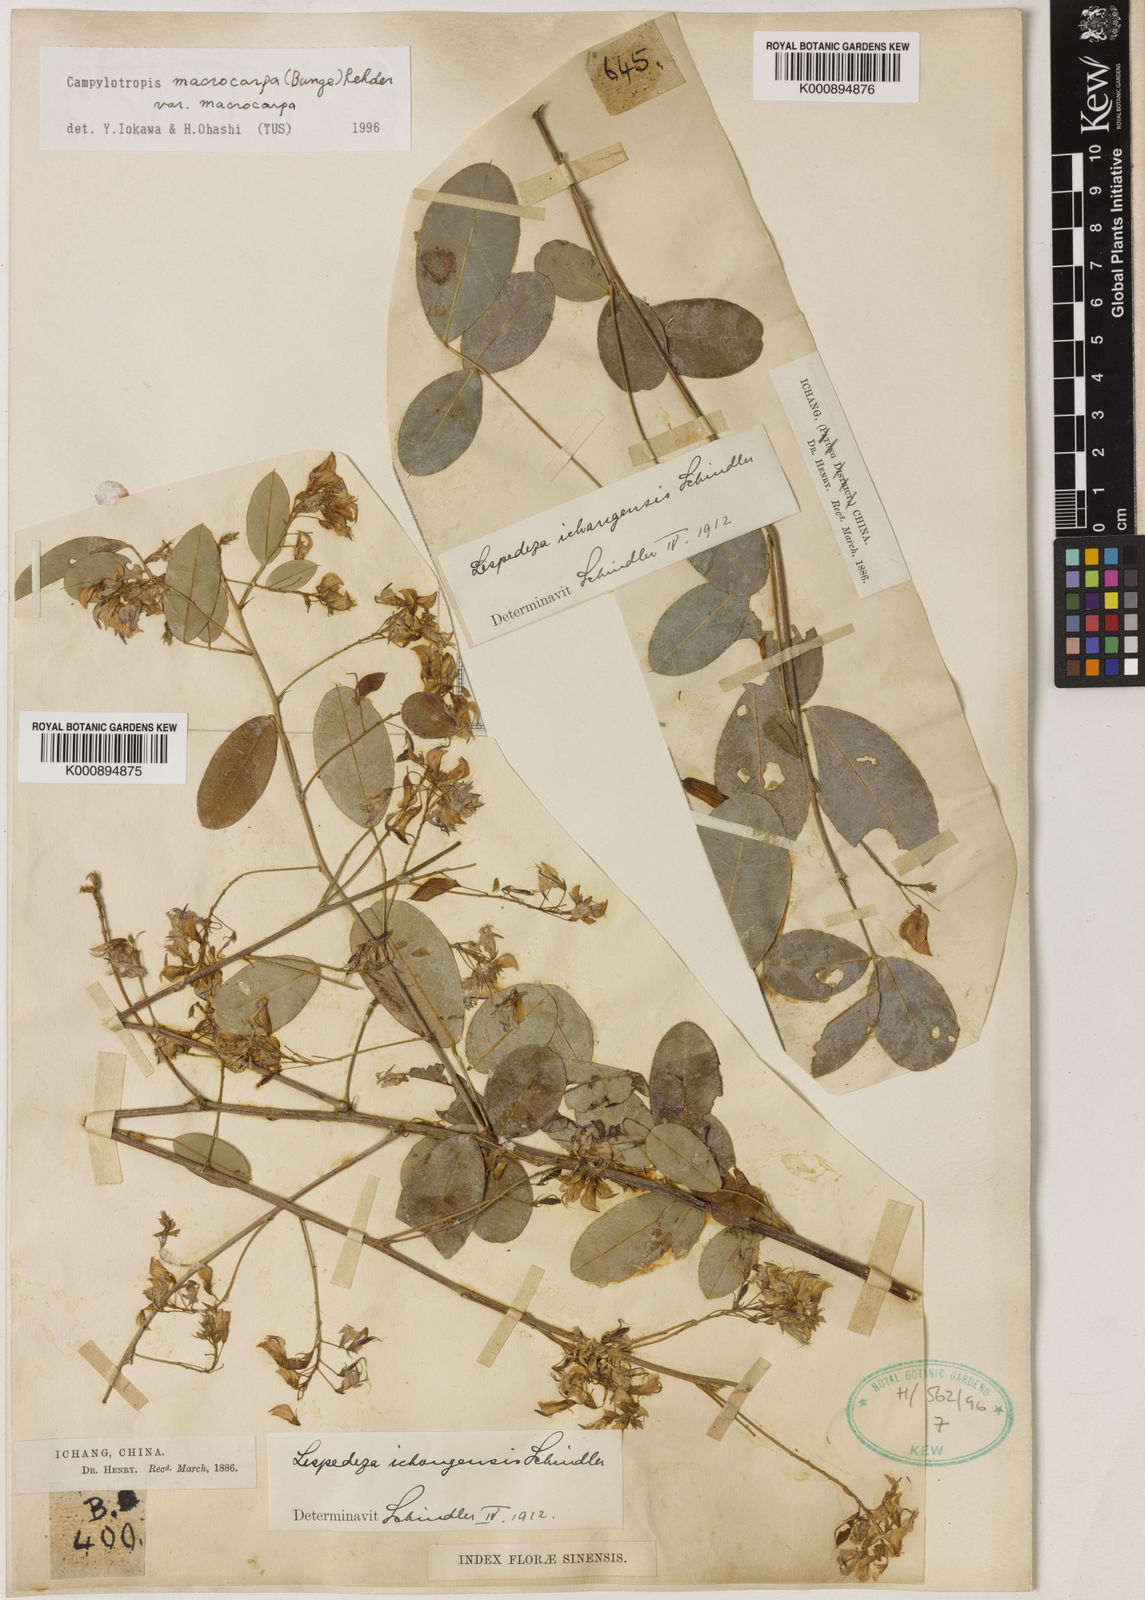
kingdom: Plantae
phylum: Tracheophyta
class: Magnoliopsida
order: Fabales
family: Fabaceae
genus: Campylotropis
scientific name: Campylotropis macrocarpa
